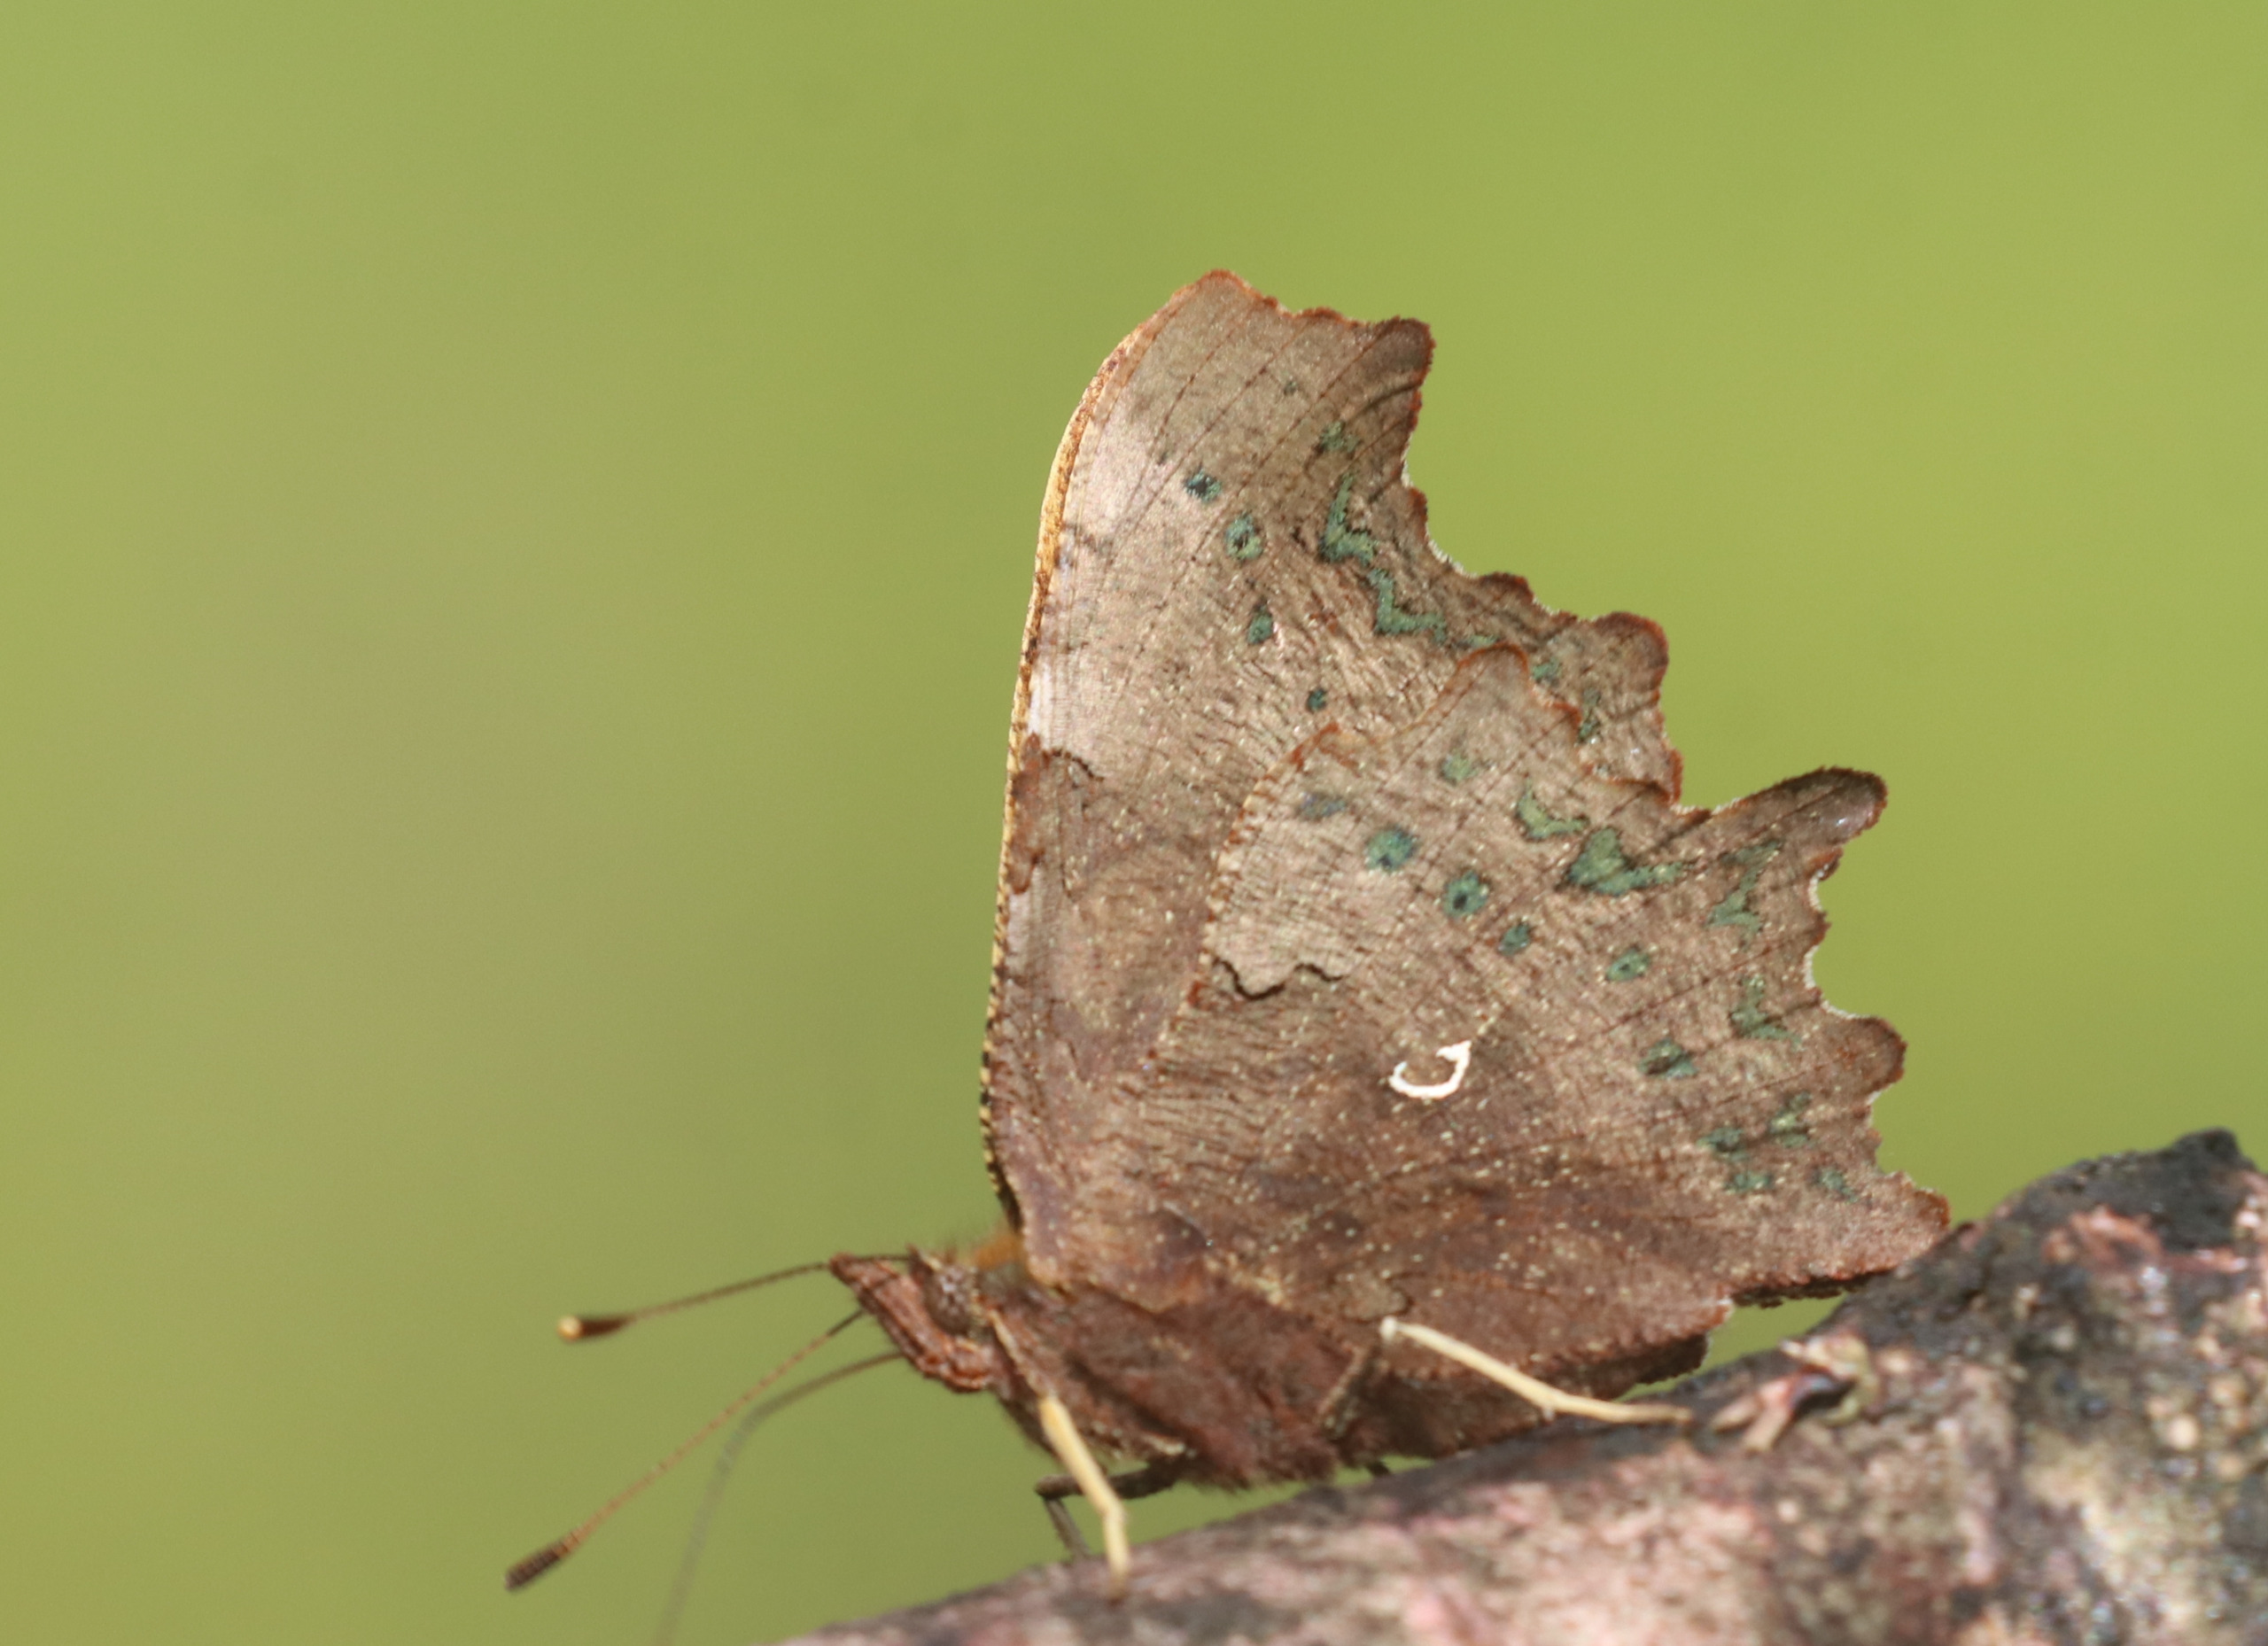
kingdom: Animalia
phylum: Arthropoda
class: Insecta
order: Lepidoptera
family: Nymphalidae
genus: Polygonia
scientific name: Polygonia c-album
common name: Det hvide C
